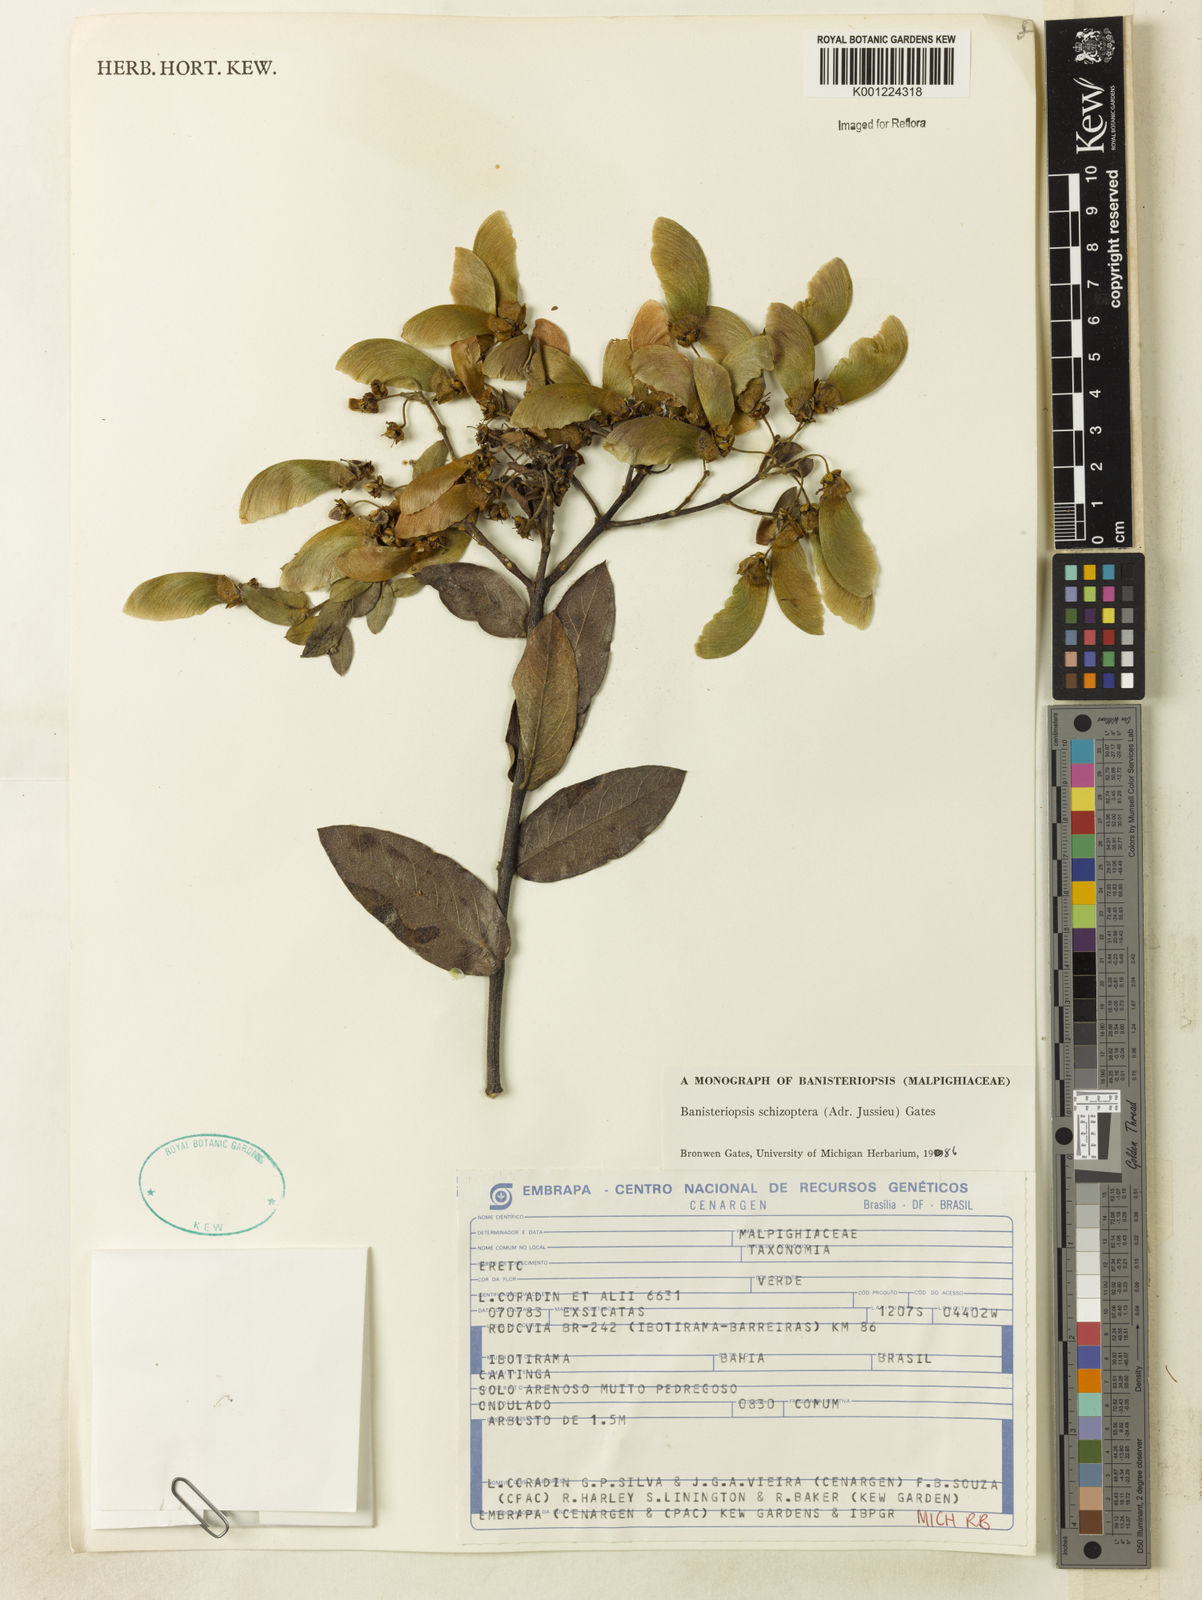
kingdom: Plantae
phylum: Tracheophyta
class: Magnoliopsida
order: Malpighiales
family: Malpighiaceae
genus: Banisteriopsis
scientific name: Banisteriopsis schizoptera
